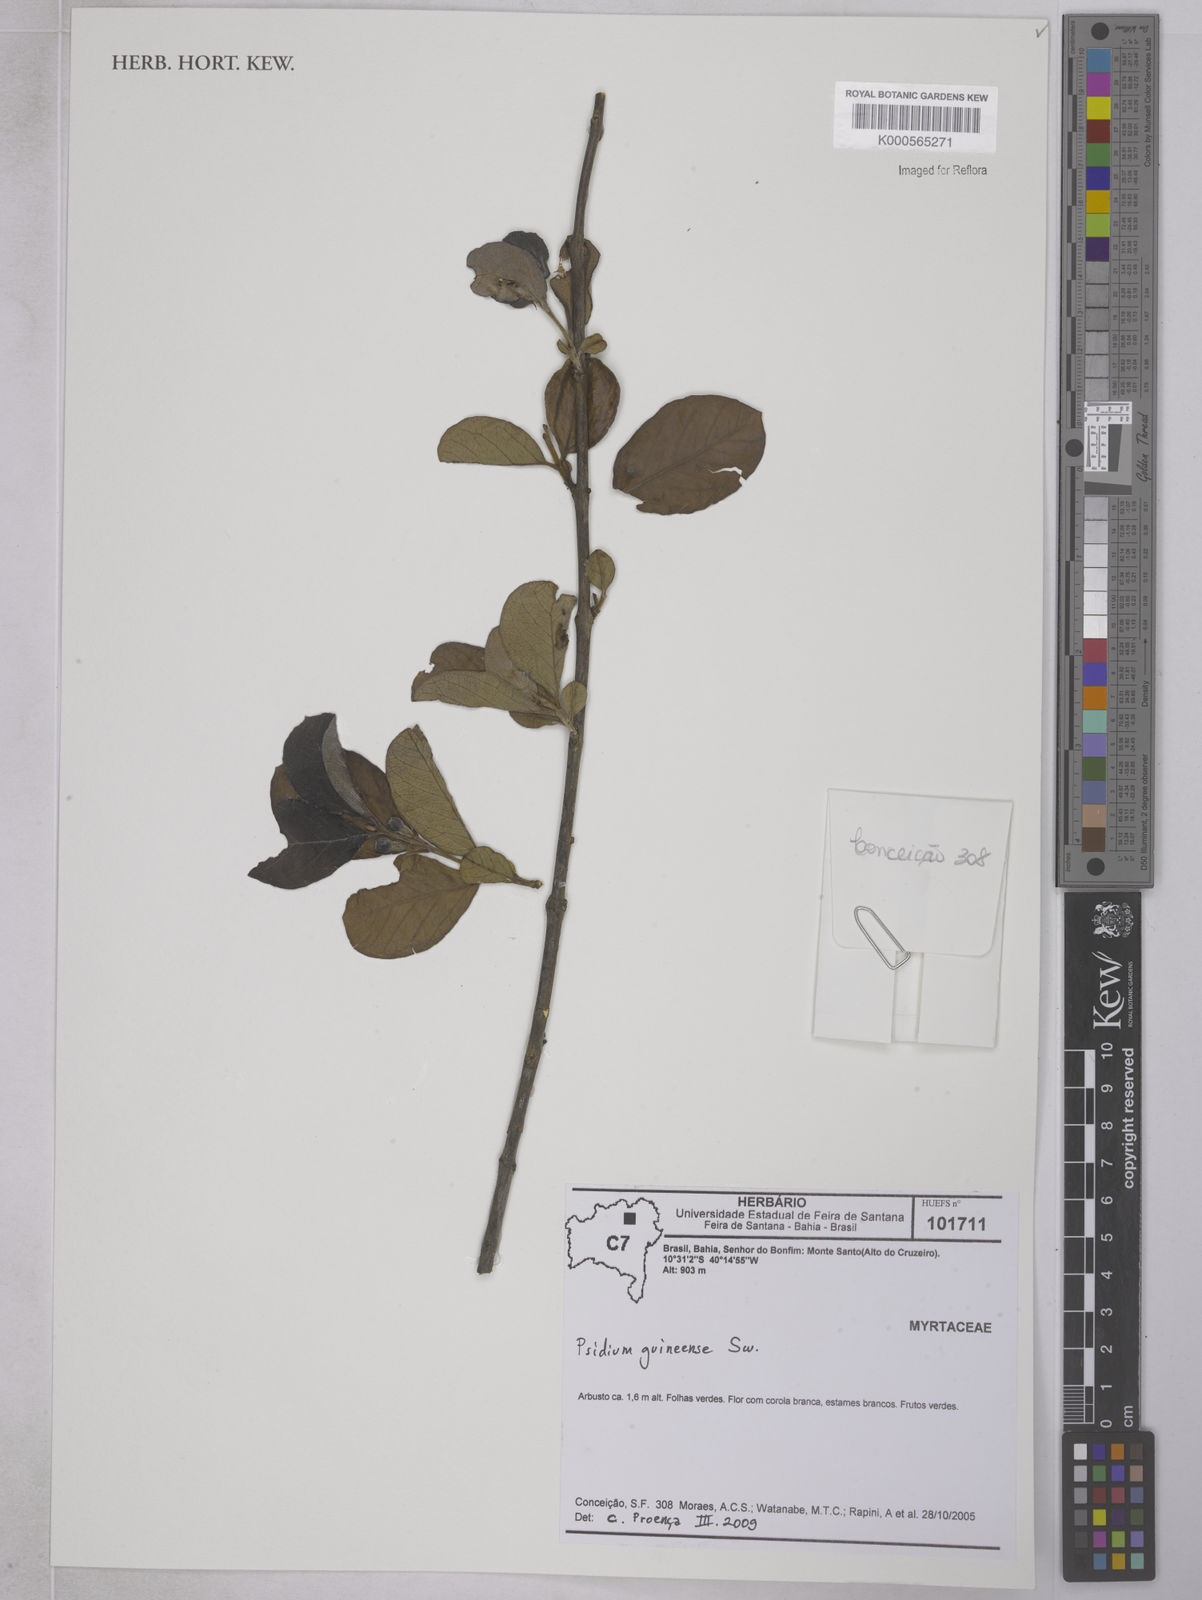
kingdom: Plantae
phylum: Tracheophyta
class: Magnoliopsida
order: Myrtales
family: Myrtaceae
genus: Psidium
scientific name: Psidium
